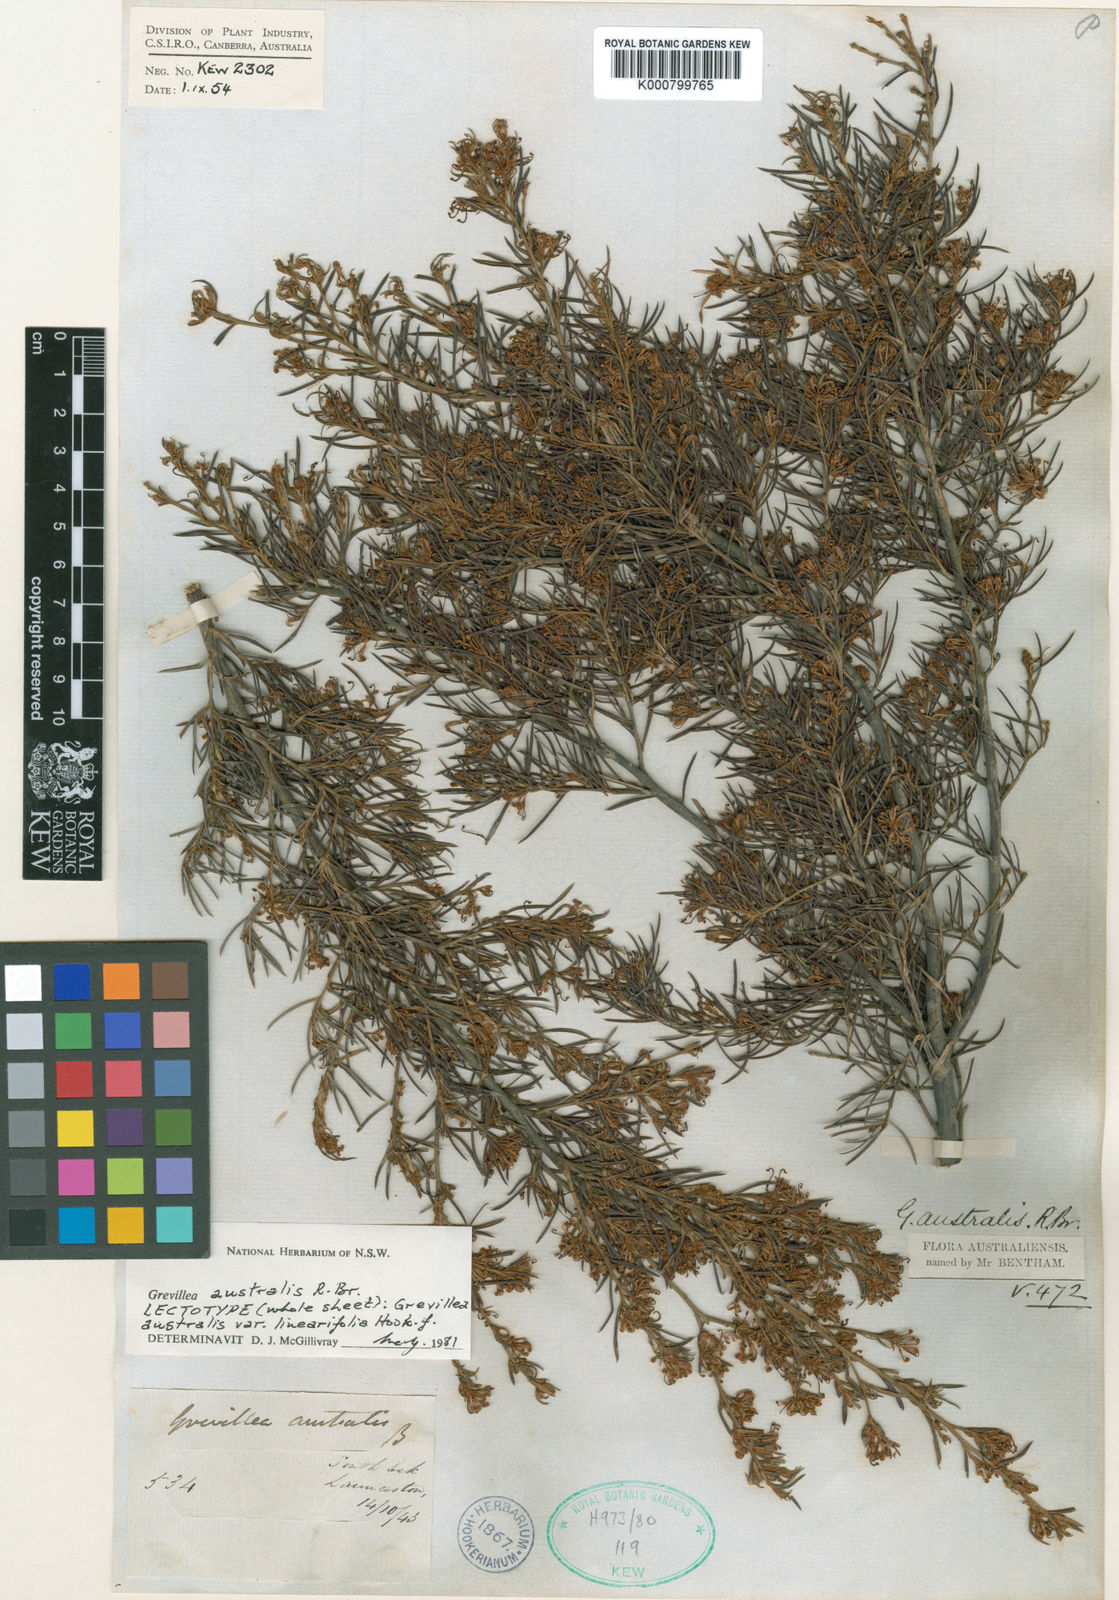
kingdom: Plantae
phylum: Tracheophyta
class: Magnoliopsida
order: Proteales
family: Proteaceae
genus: Grevillea
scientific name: Grevillea australis
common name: Alpine grevillea
